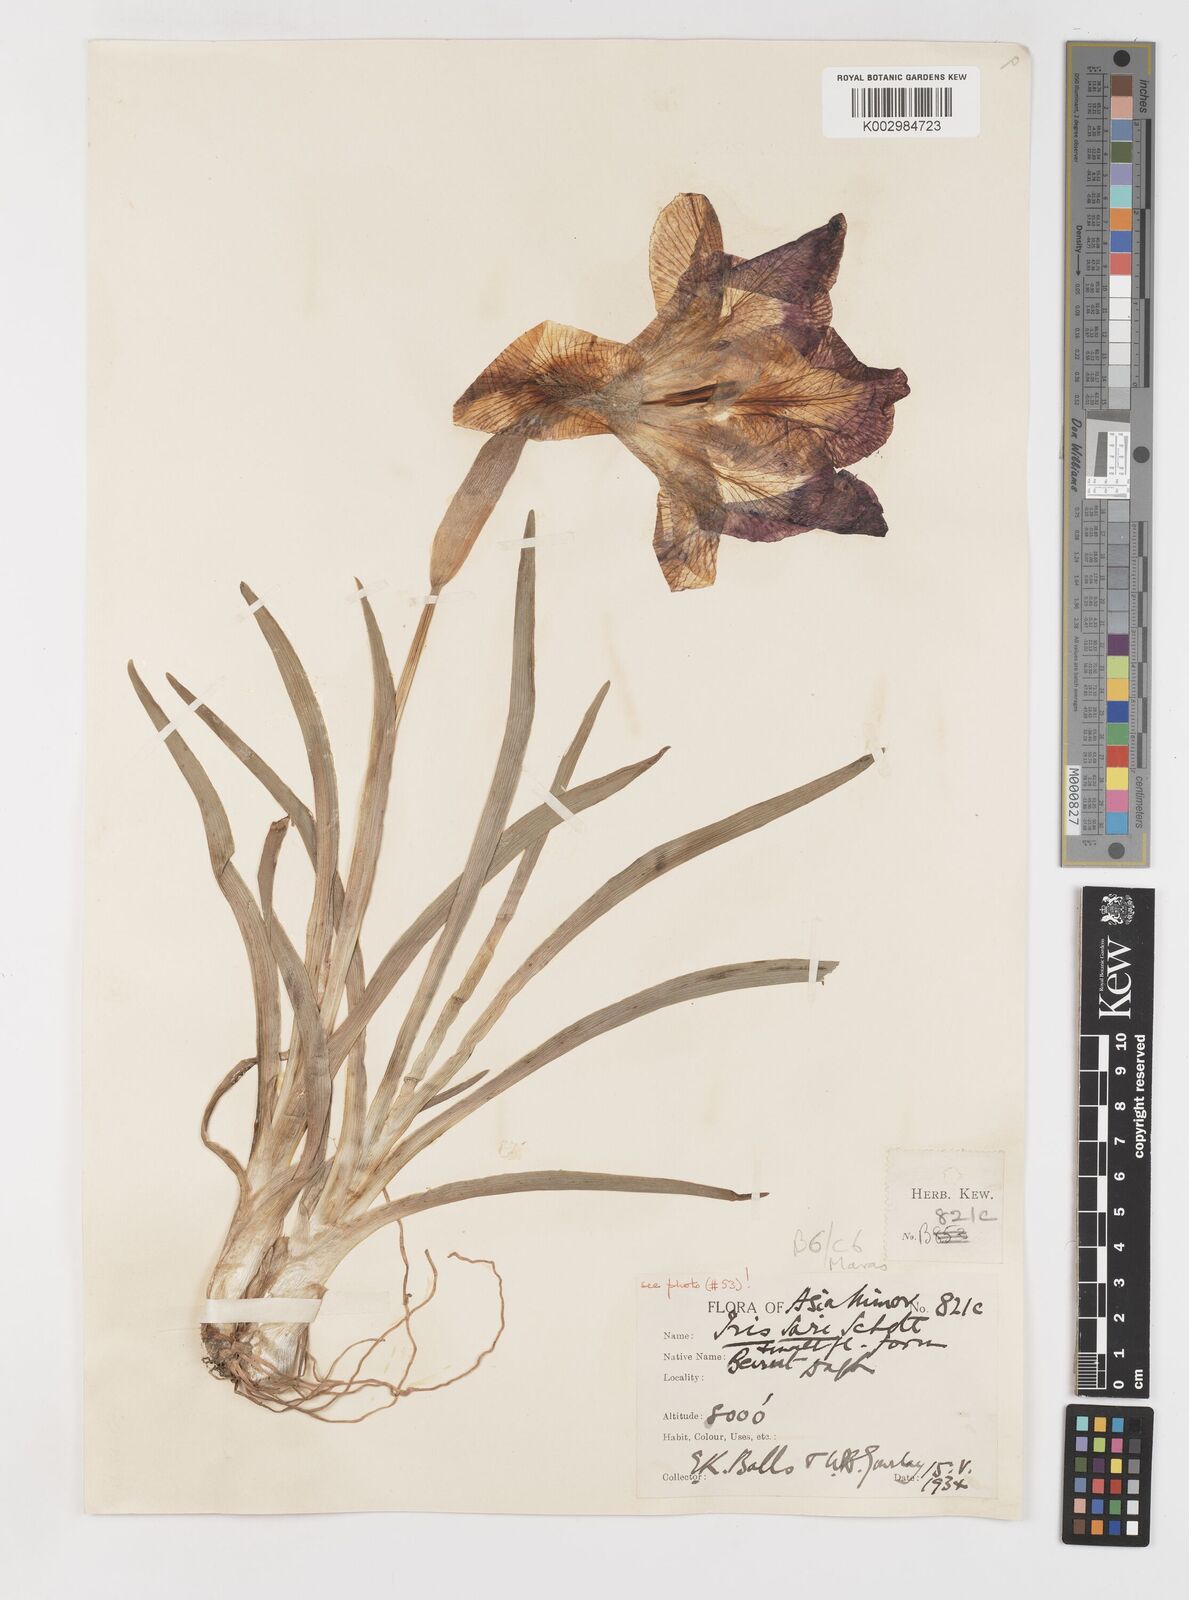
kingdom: Plantae
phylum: Tracheophyta
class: Liliopsida
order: Asparagales
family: Iridaceae
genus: Iris
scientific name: Iris sari
